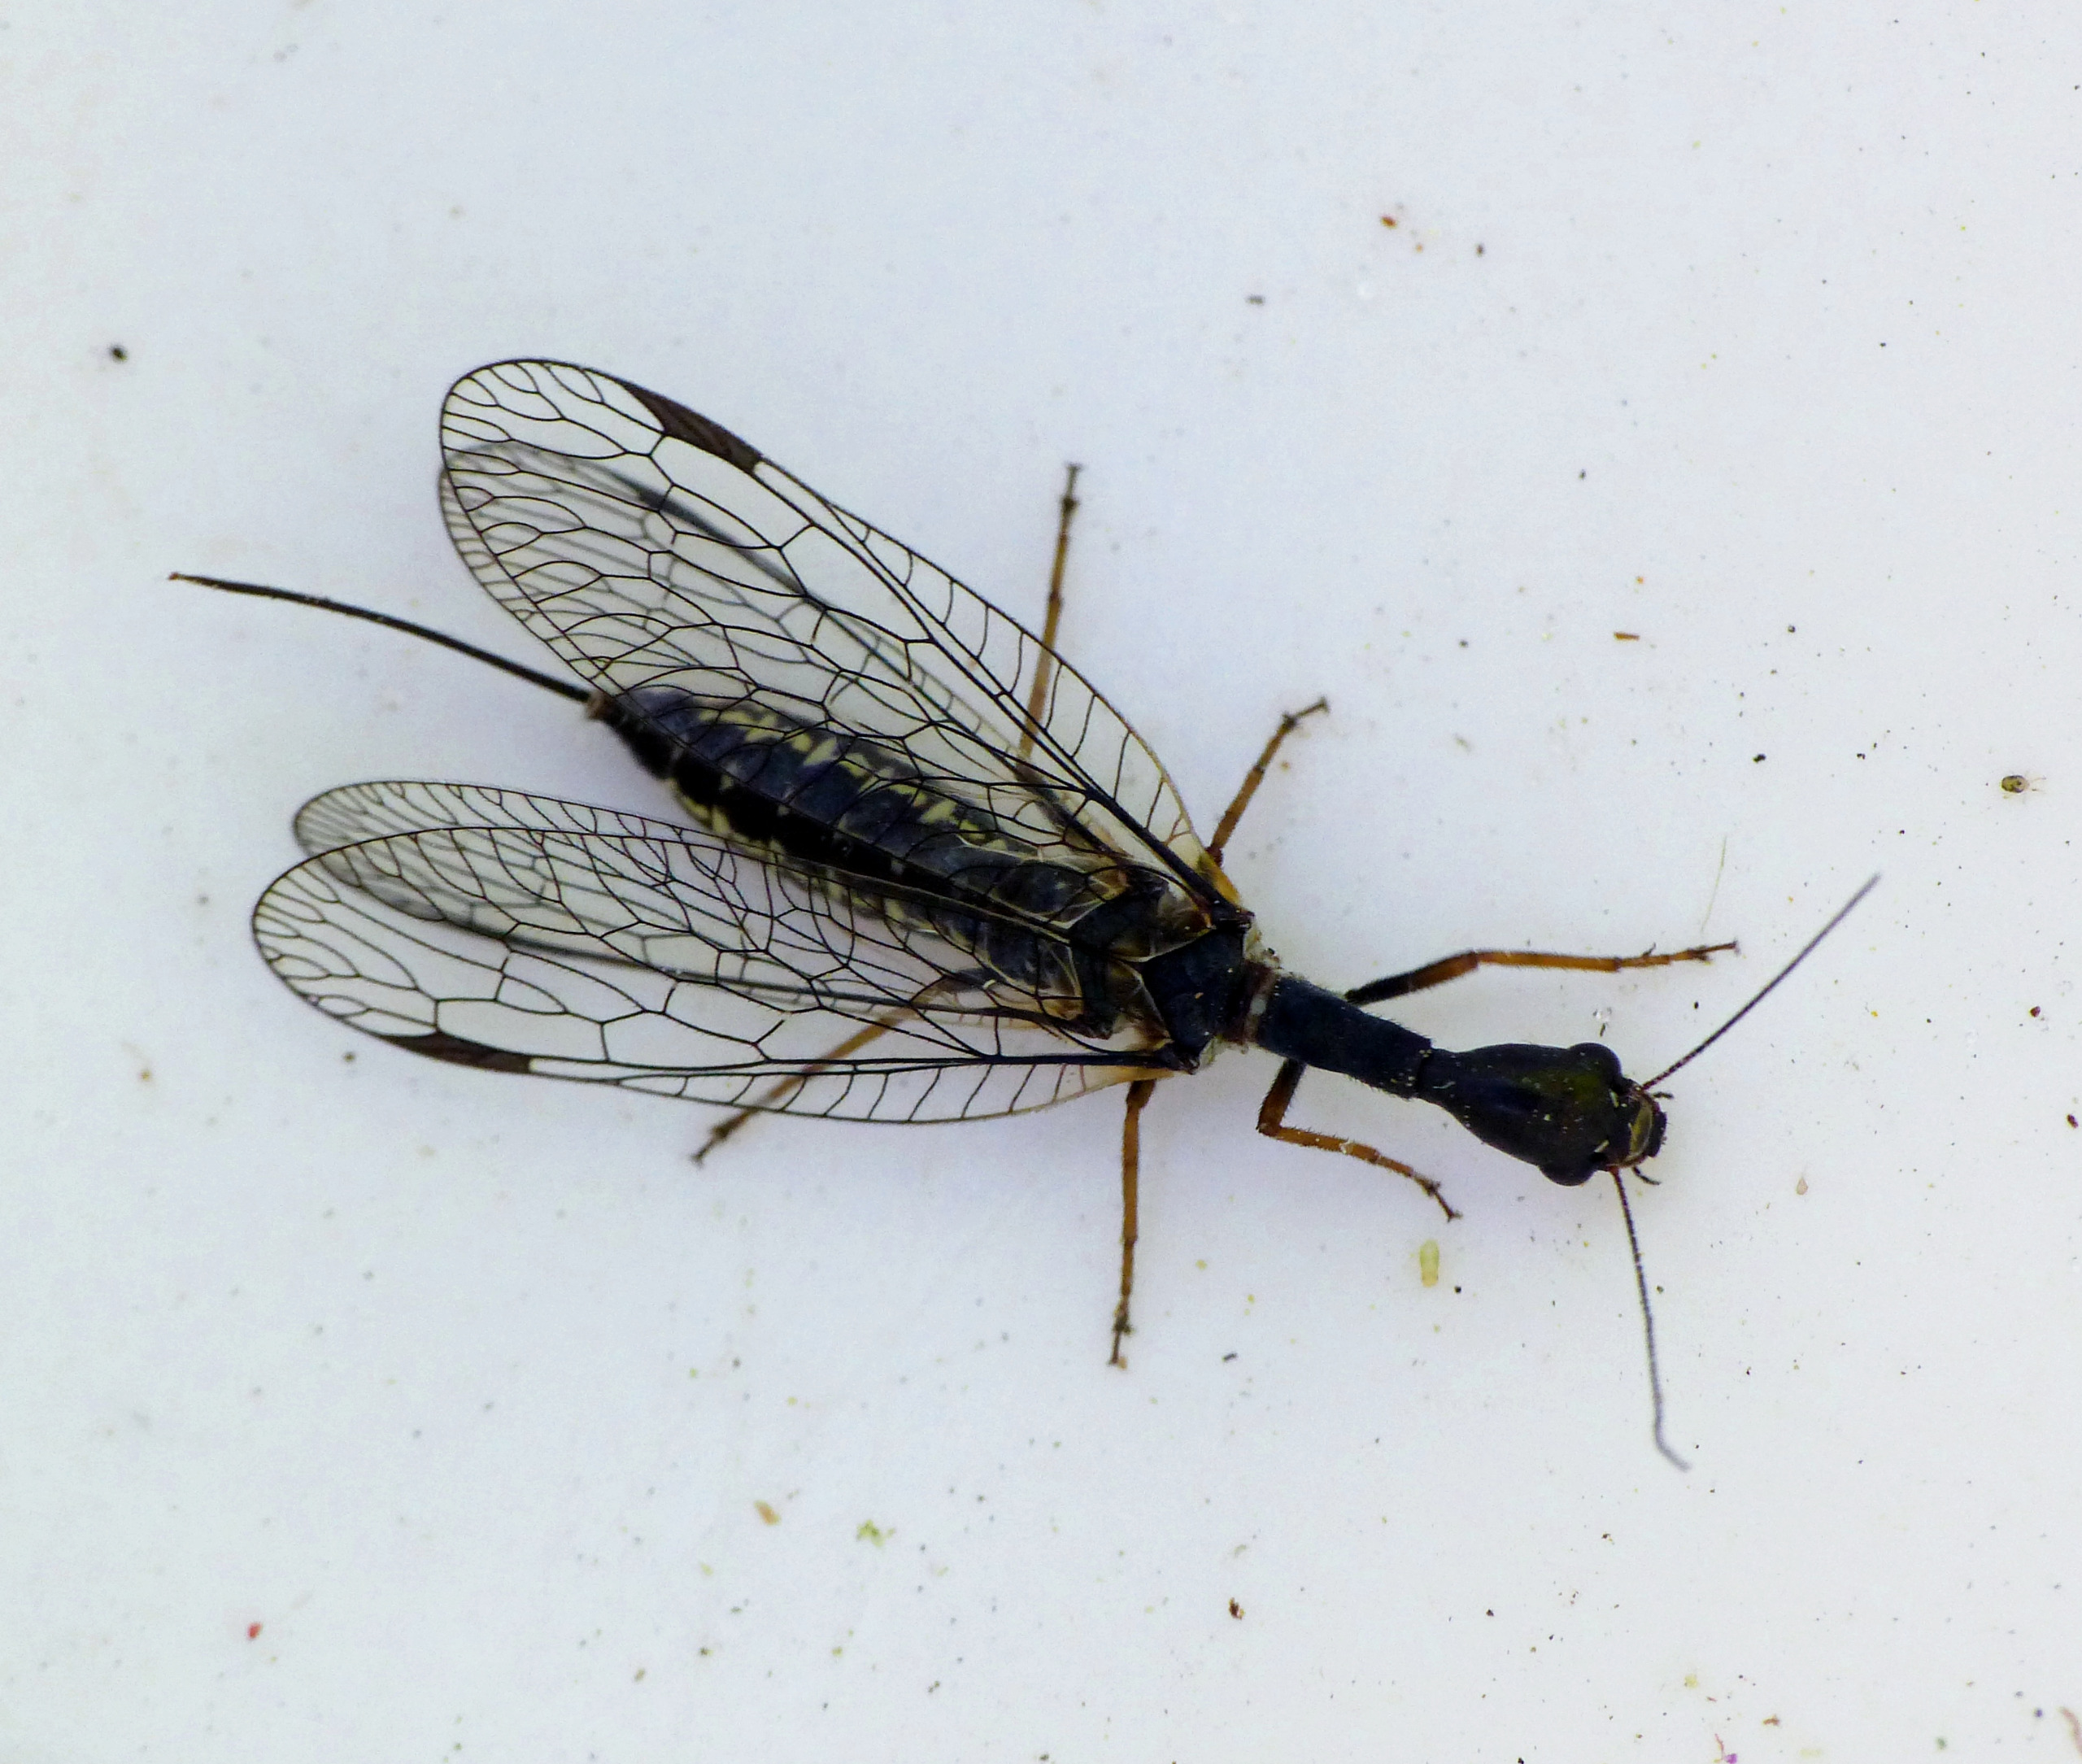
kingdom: Animalia
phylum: Arthropoda
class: Insecta
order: Raphidioptera
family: Raphidiidae
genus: Phaeostigma
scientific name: Phaeostigma notatum
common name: Stor kamelhalsflue
